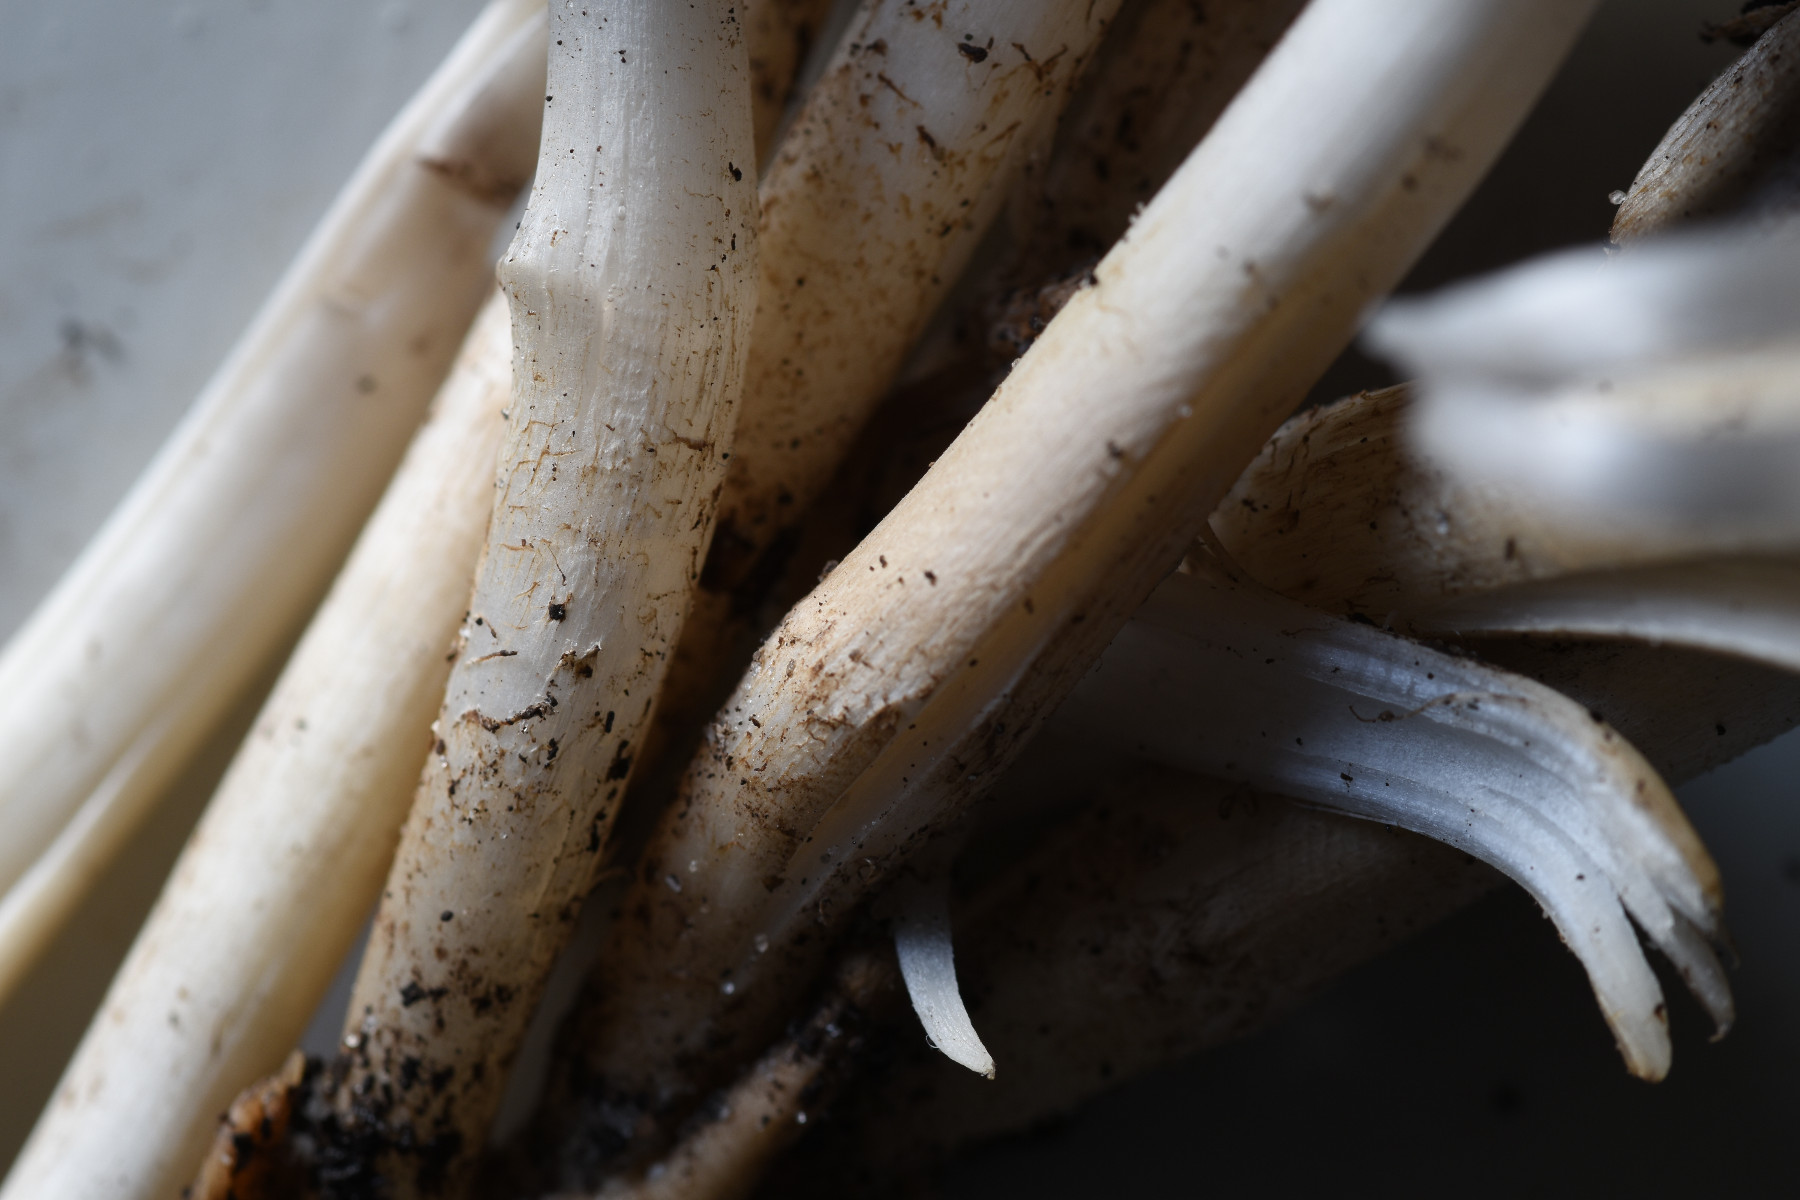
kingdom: Fungi
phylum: Basidiomycota
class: Agaricomycetes
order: Agaricales
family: Psathyrellaceae
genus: Coprinopsis
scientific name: Coprinopsis romagnesiana
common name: brunskællet blækhat
